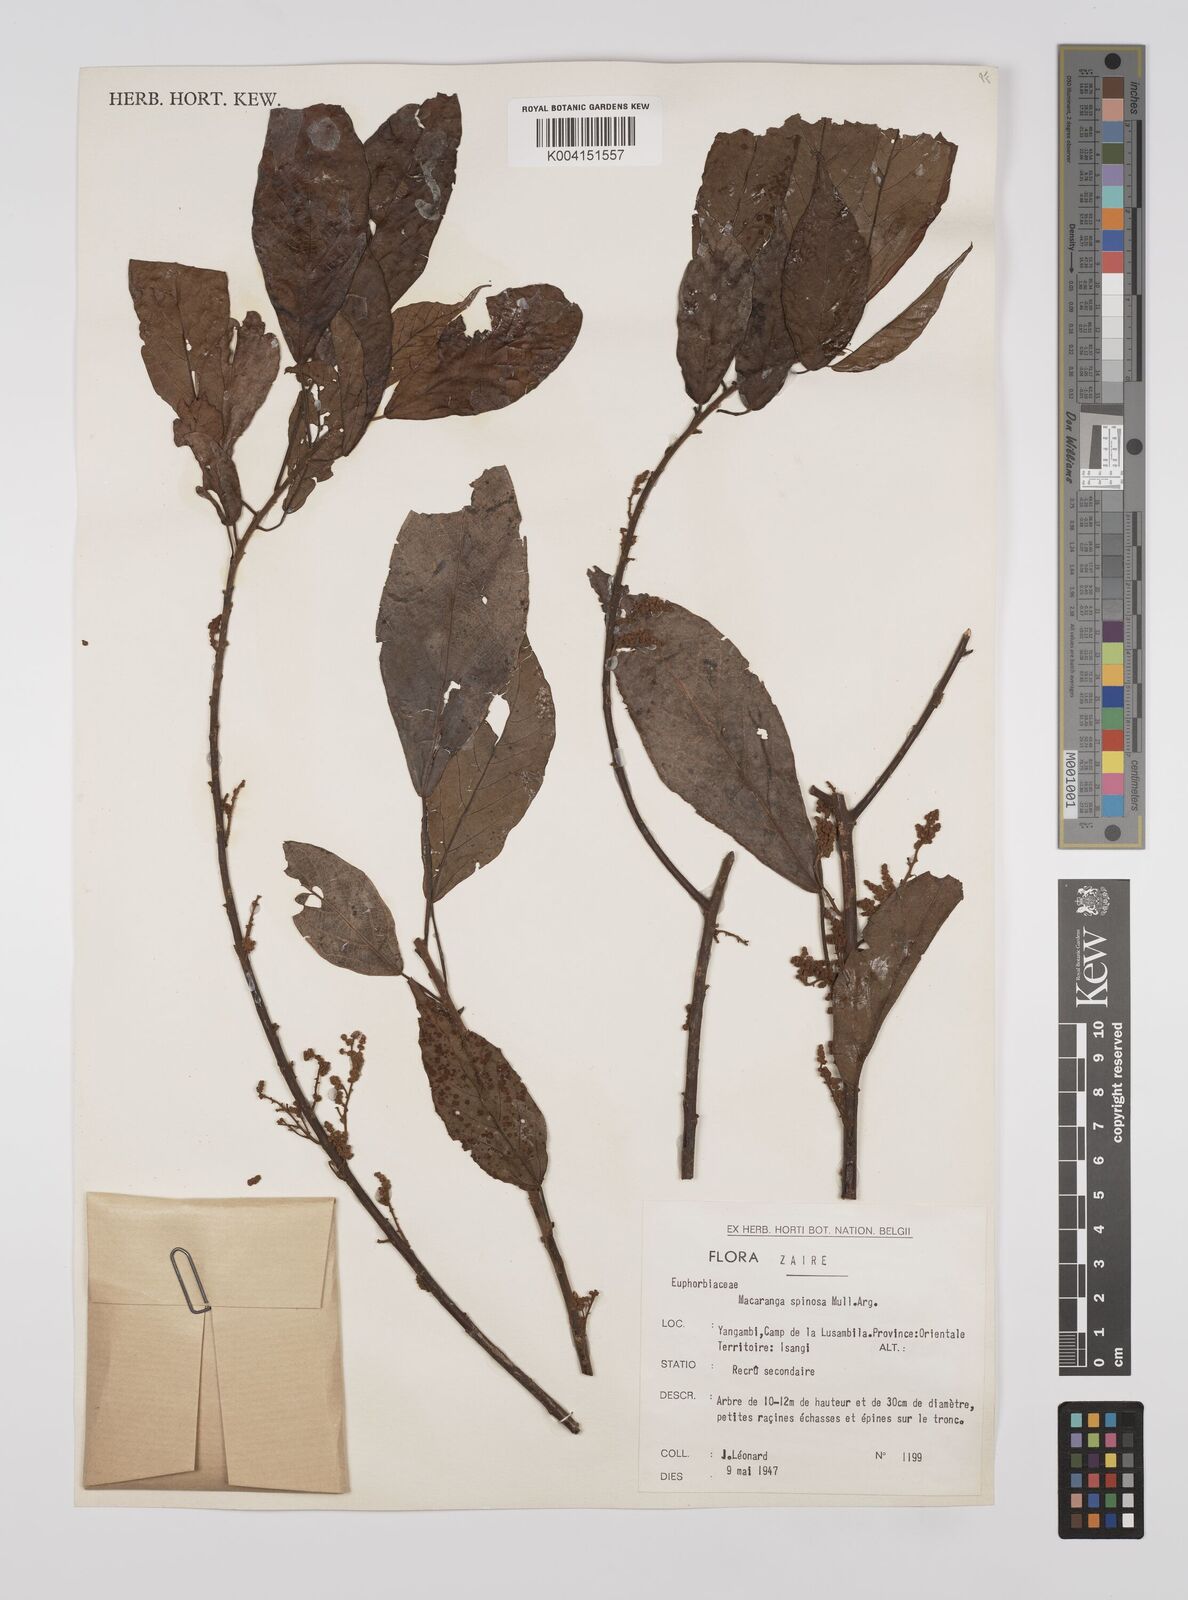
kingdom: Plantae
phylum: Tracheophyta
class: Magnoliopsida
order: Malpighiales
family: Euphorbiaceae
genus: Macaranga
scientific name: Macaranga spinosa
